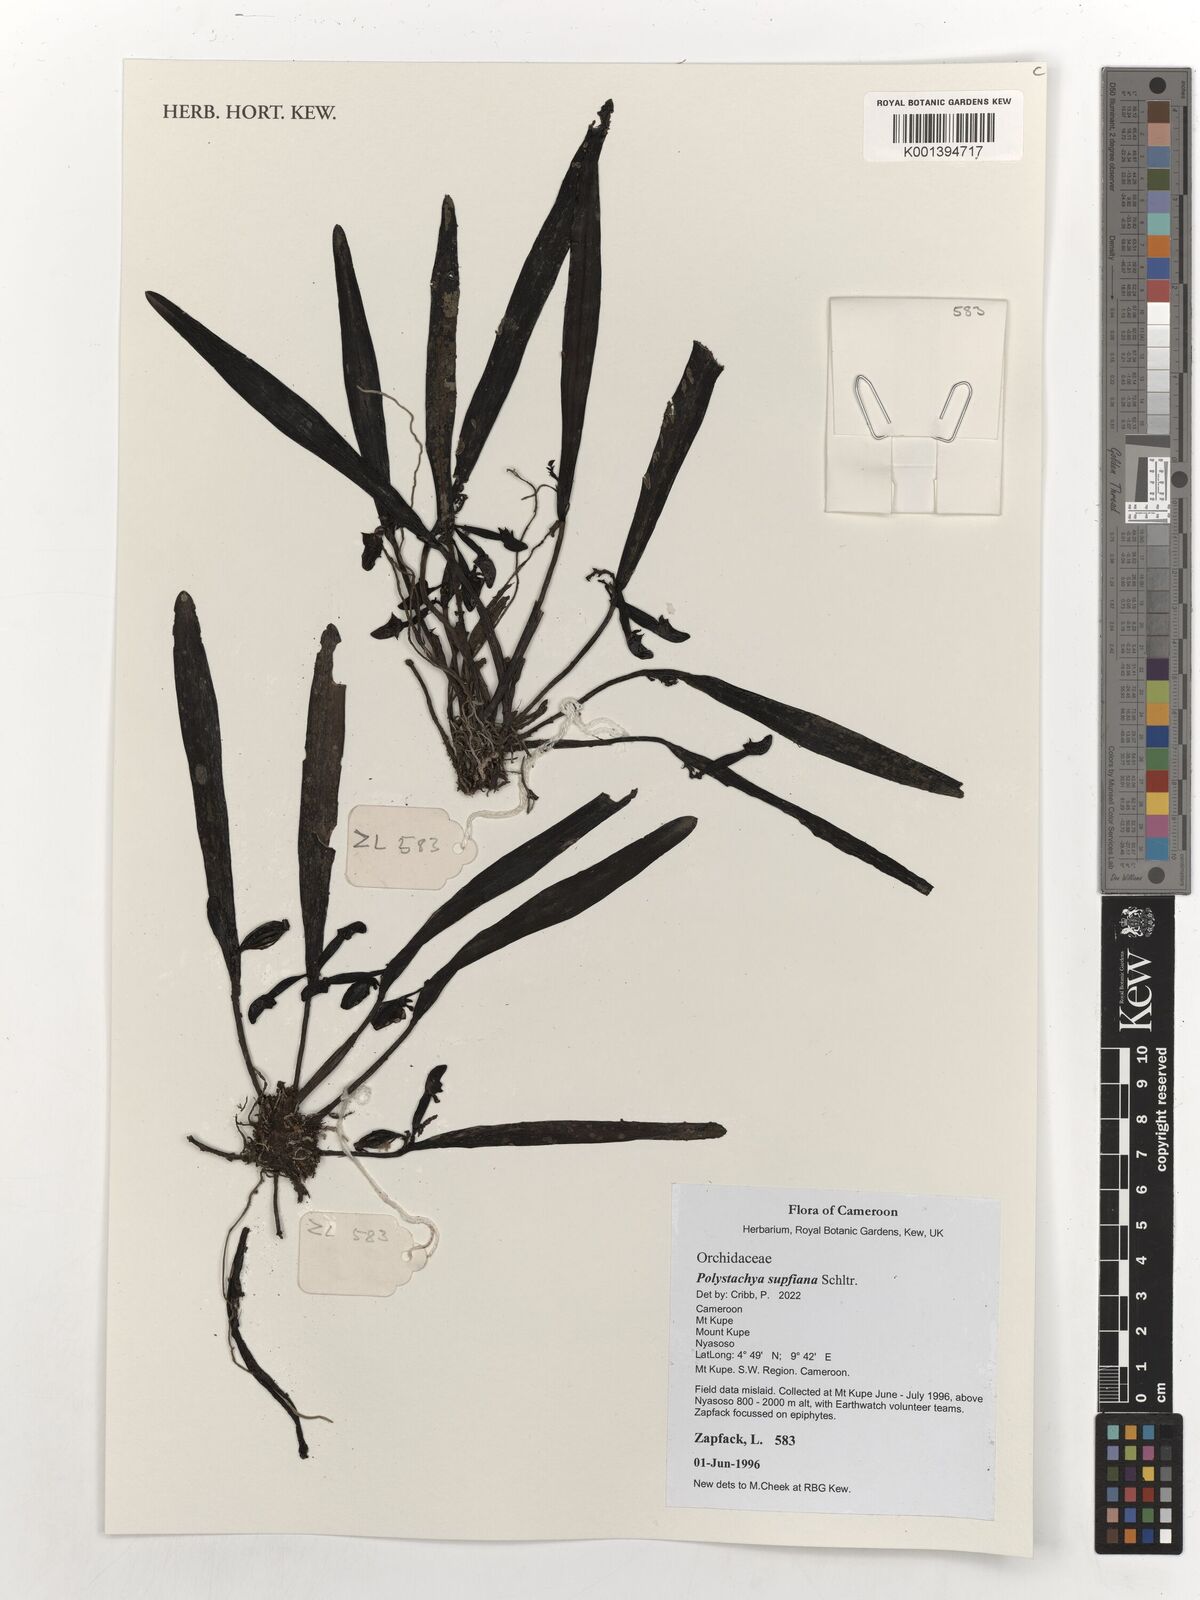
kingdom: Plantae
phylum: Tracheophyta
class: Liliopsida
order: Asparagales
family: Orchidaceae
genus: Polystachya
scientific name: Polystachya supfiana
